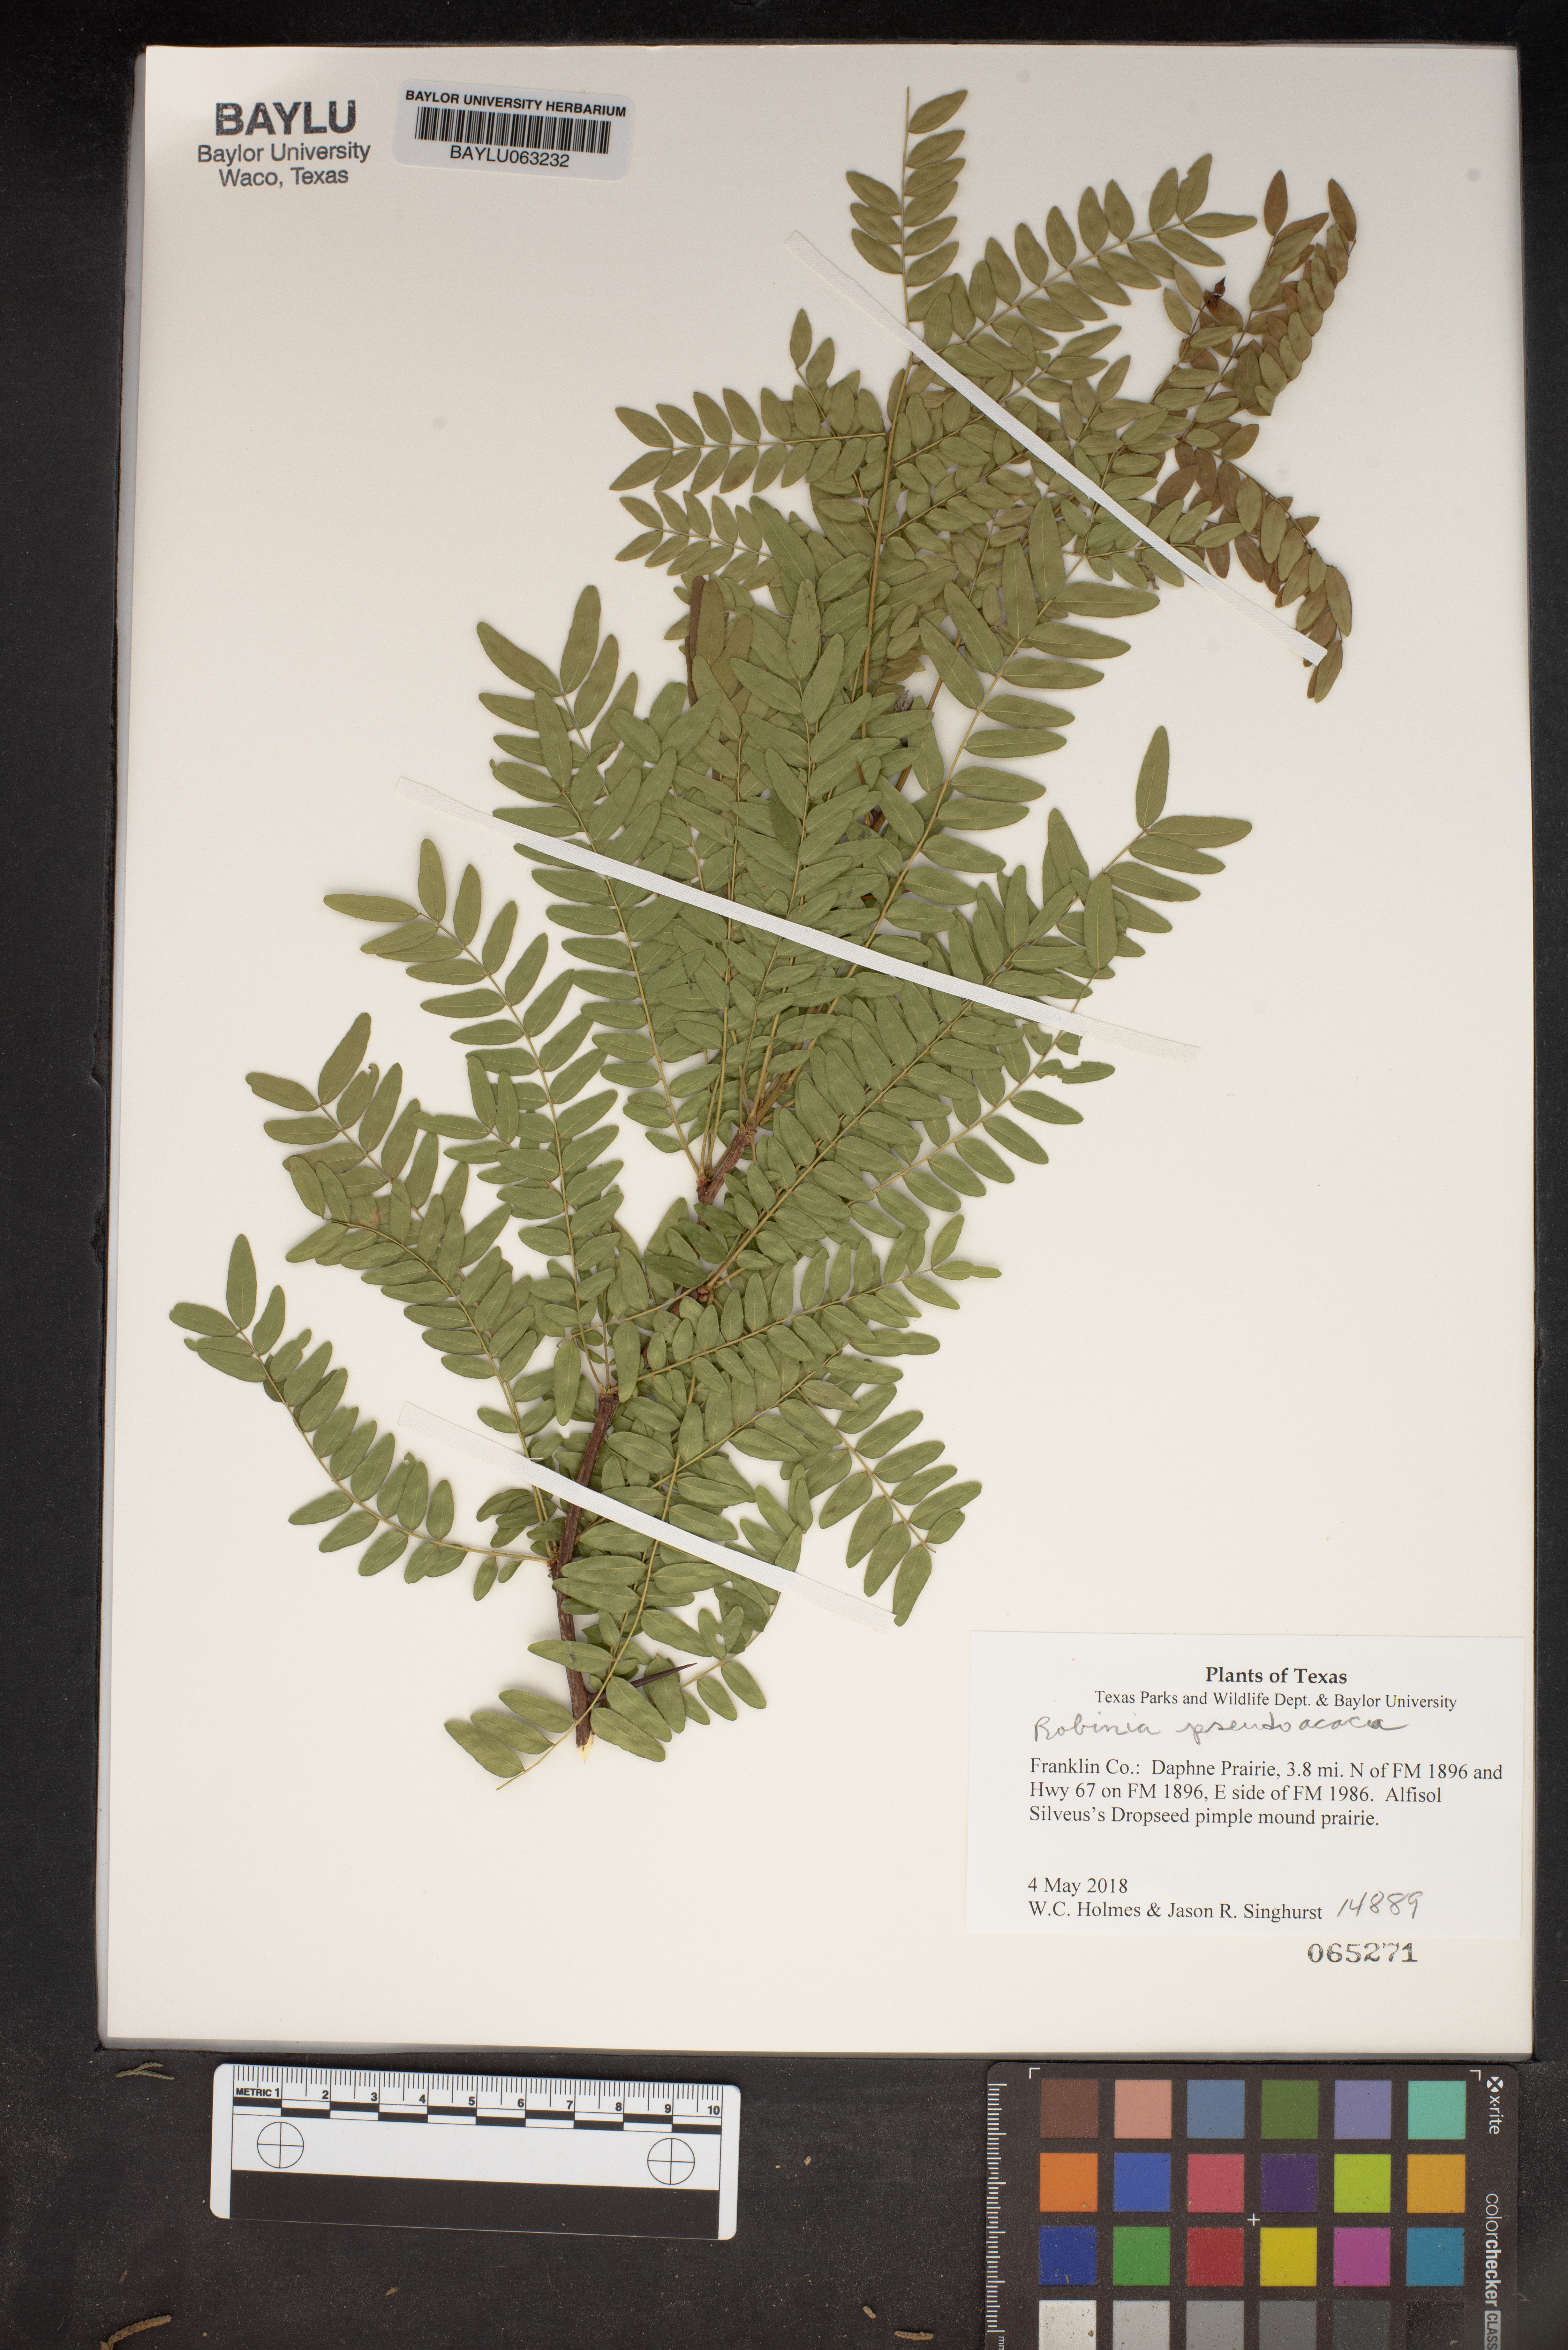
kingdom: Plantae
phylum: Tracheophyta
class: Magnoliopsida
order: Fabales
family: Fabaceae
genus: Robinia
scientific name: Robinia pseudoacacia
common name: Black locust
